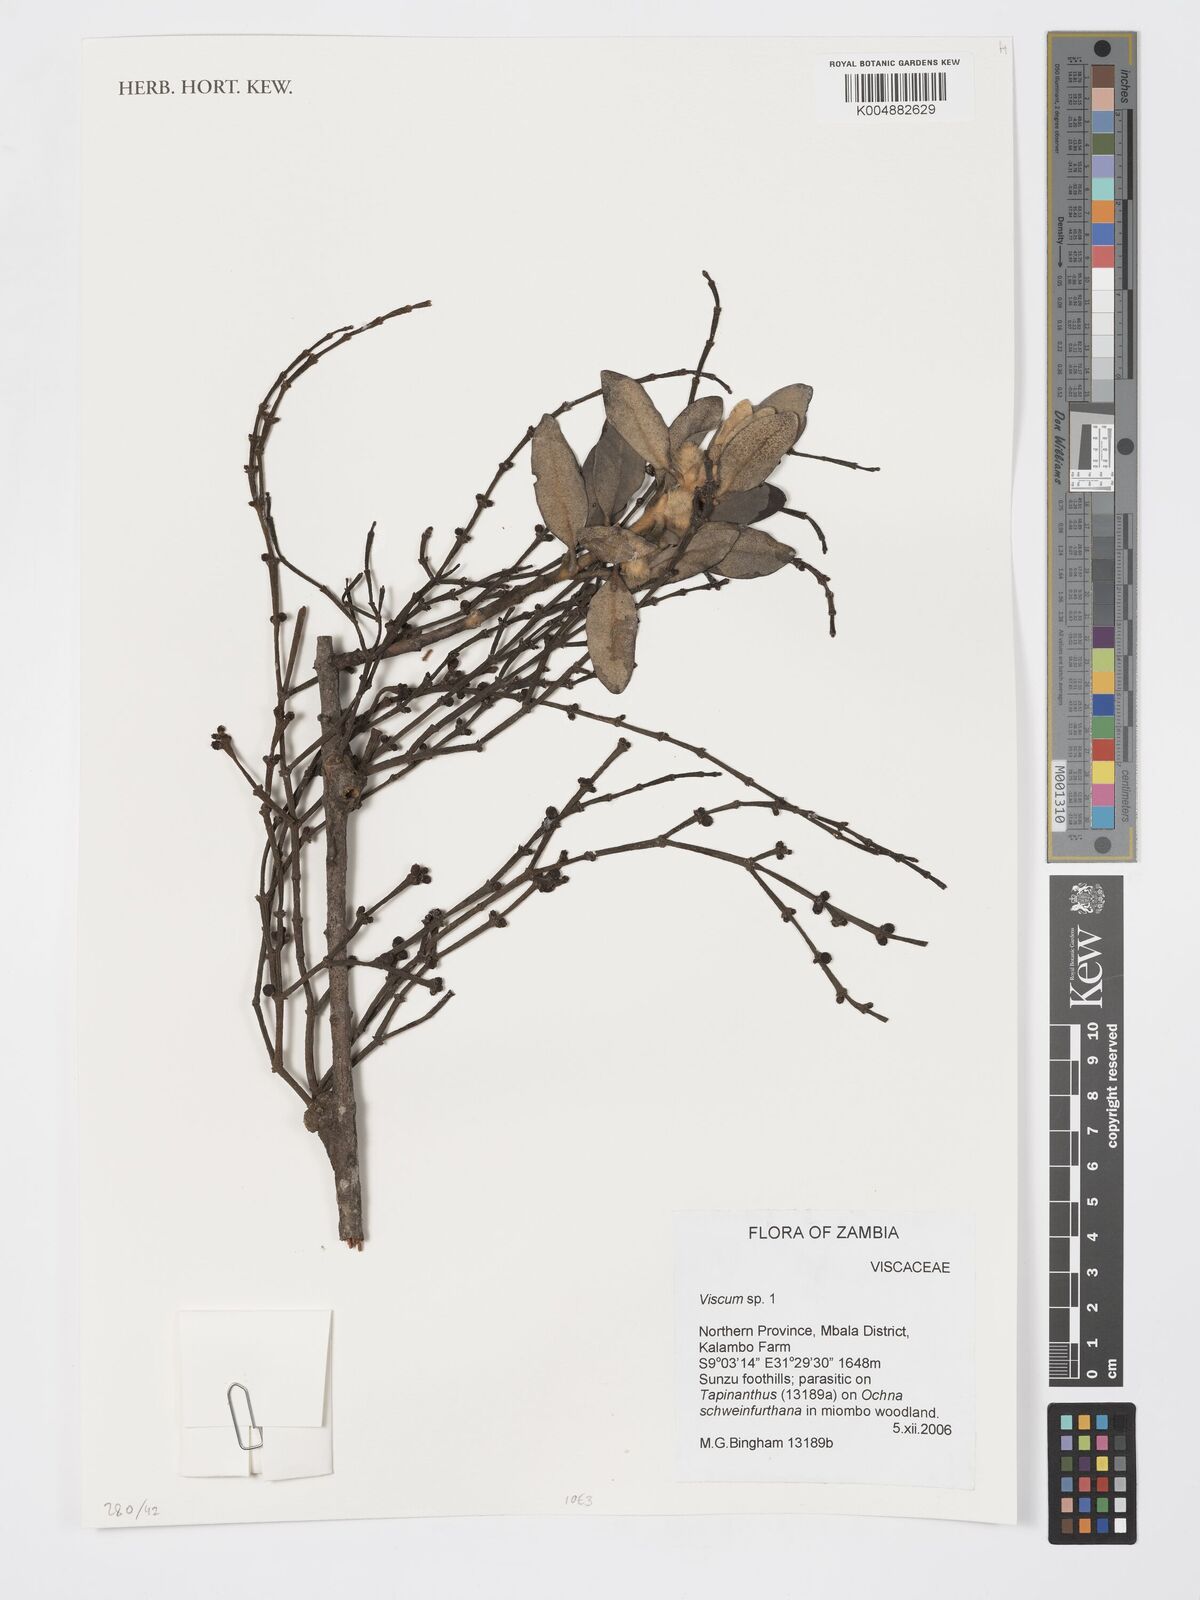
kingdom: Plantae
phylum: Tracheophyta
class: Magnoliopsida
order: Santalales
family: Viscaceae
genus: Viscum
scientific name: Viscum
